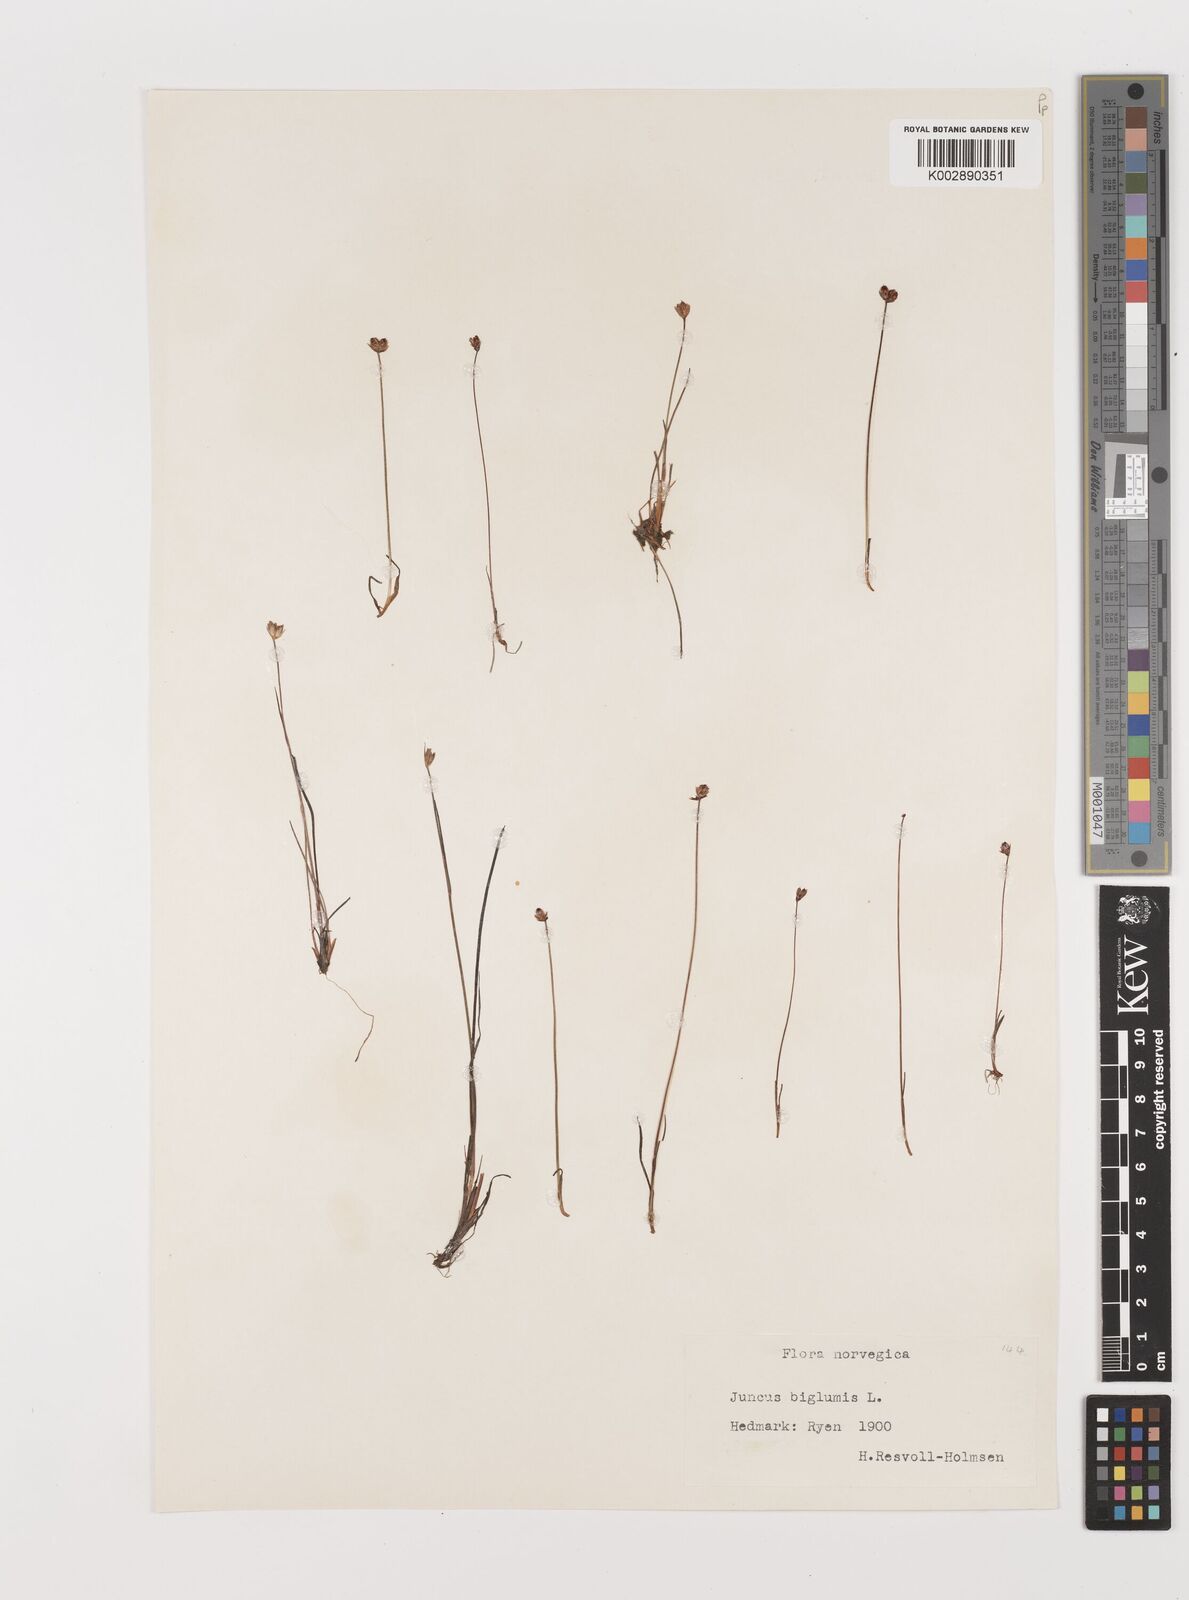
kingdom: Plantae
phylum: Tracheophyta
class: Liliopsida
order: Poales
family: Juncaceae
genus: Juncus
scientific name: Juncus biglumis
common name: Two-flowered rush
